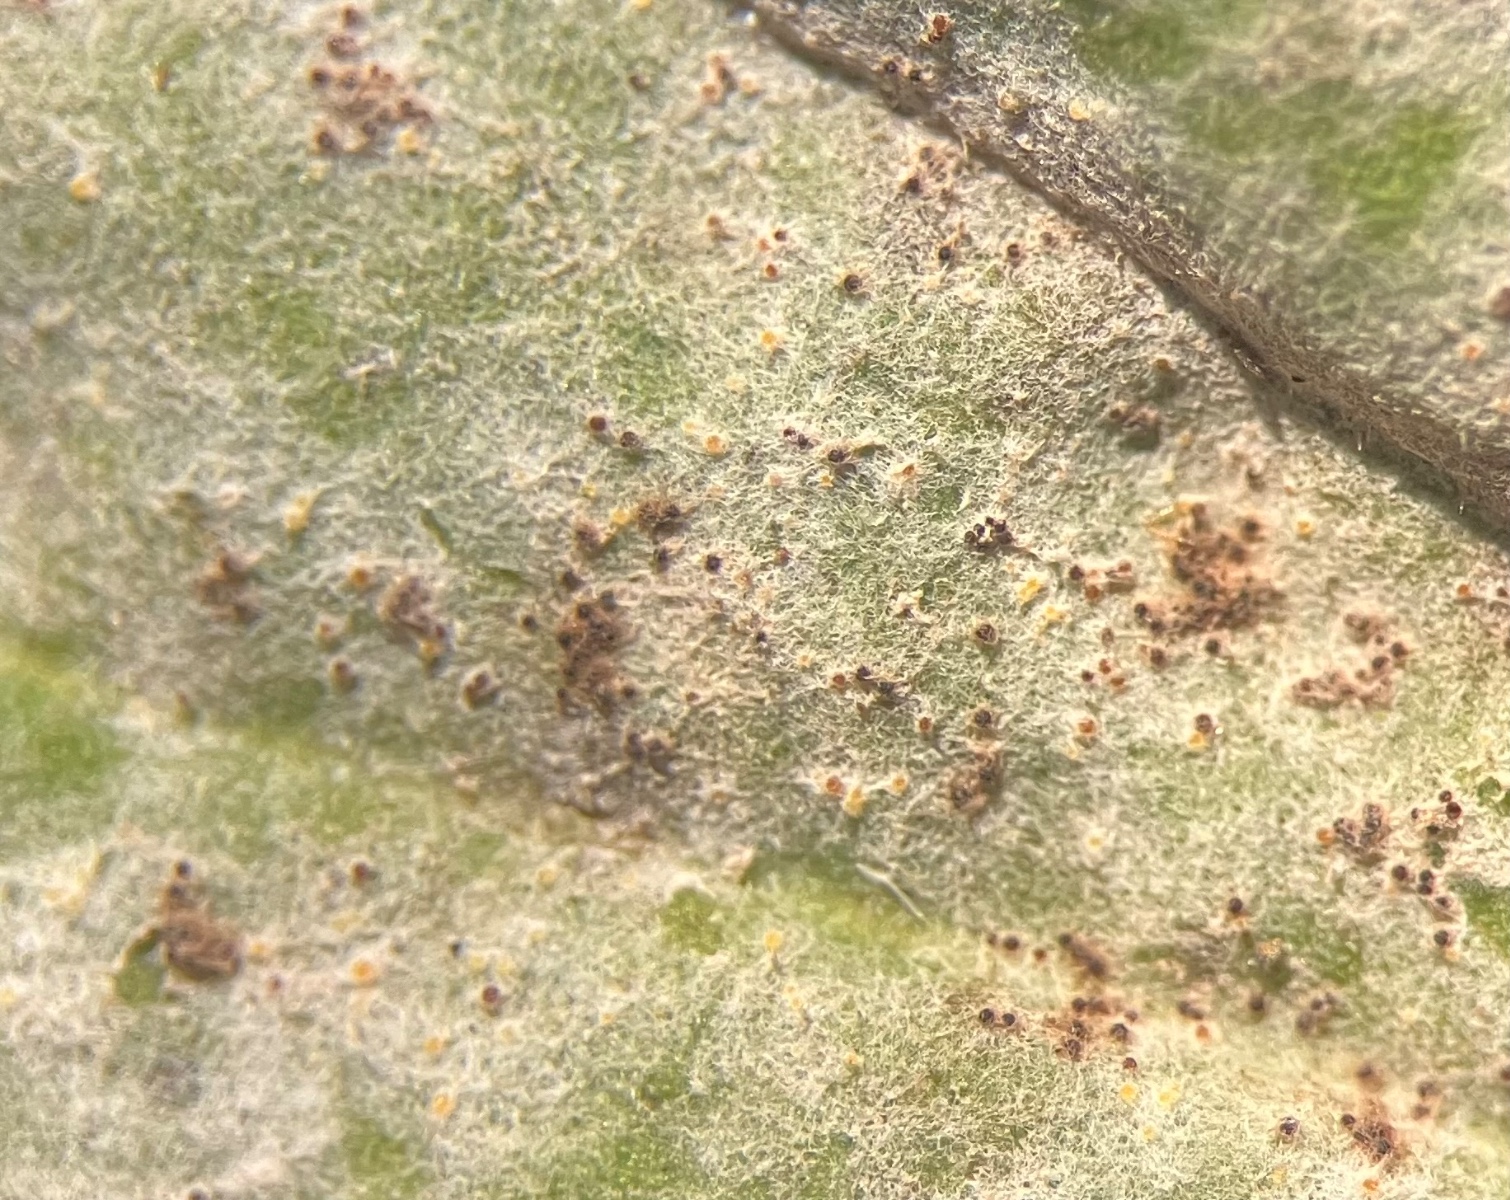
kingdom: Fungi
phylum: Ascomycota
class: Leotiomycetes
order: Helotiales
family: Erysiphaceae
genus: Golovinomyces
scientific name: Golovinomyces sordidus
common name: Plantain mildew
